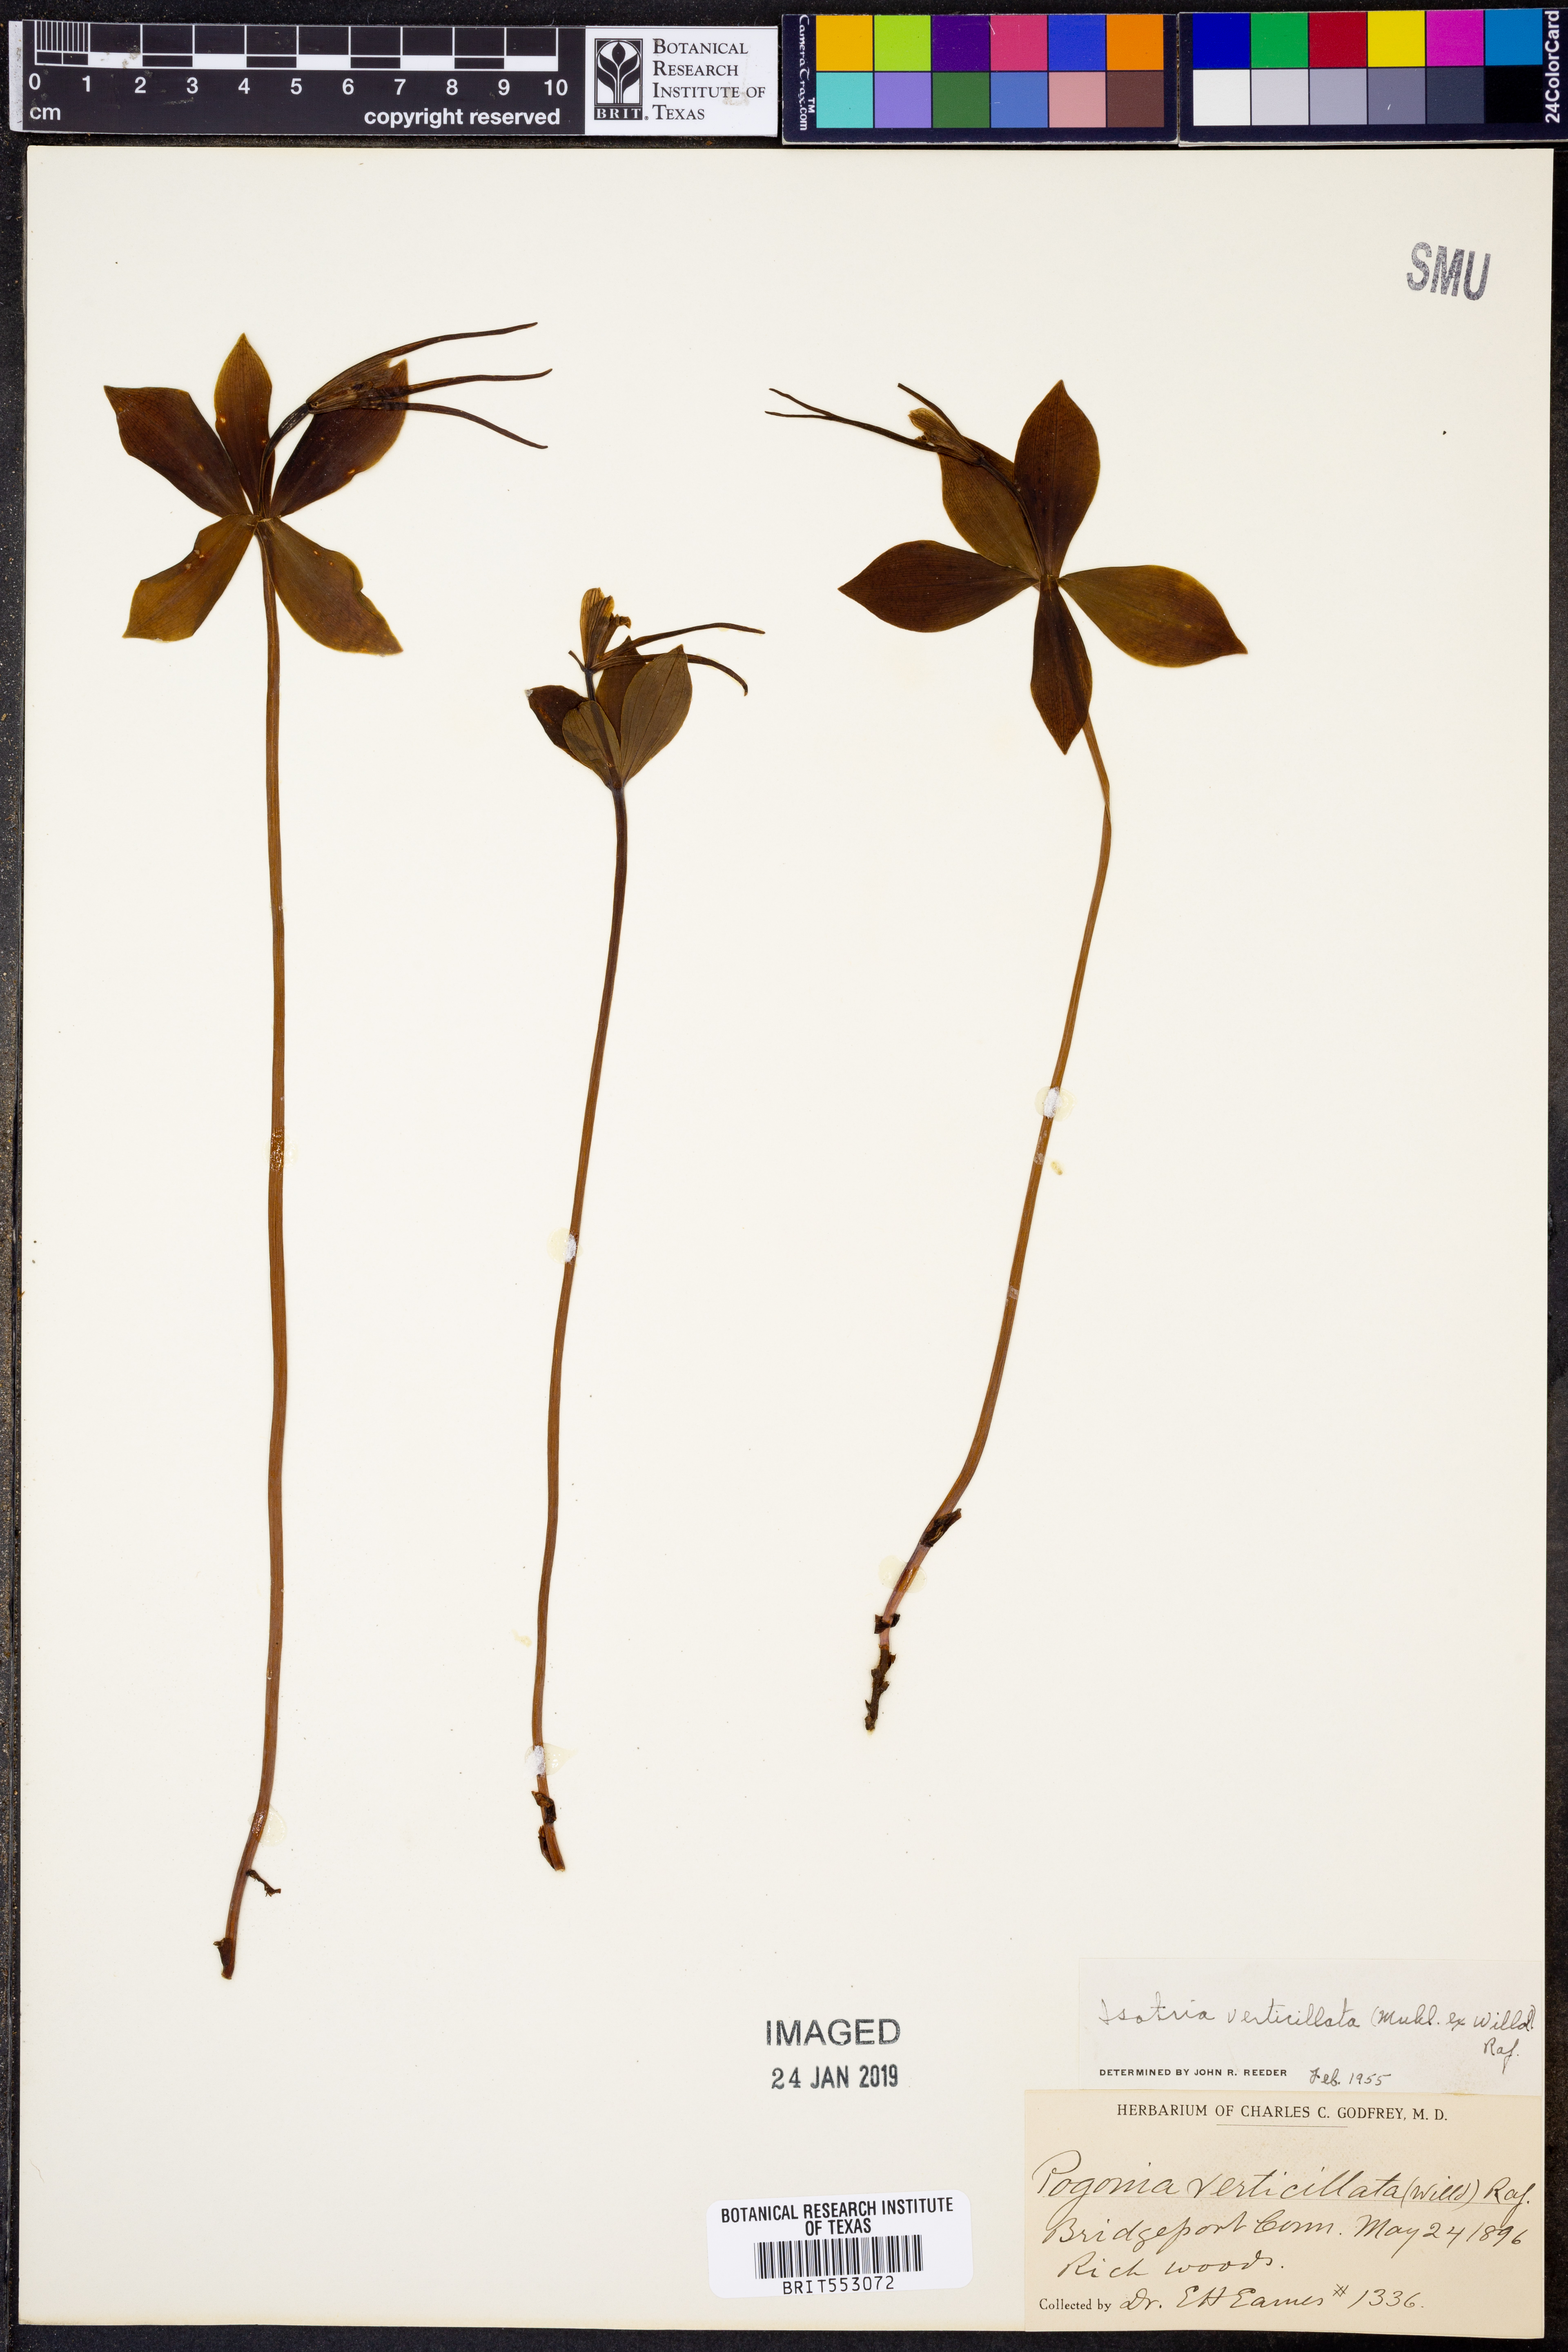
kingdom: Plantae
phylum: Tracheophyta
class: Liliopsida
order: Asparagales
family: Orchidaceae
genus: Isotria
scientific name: Isotria verticillata
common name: Large whorled pogonia
